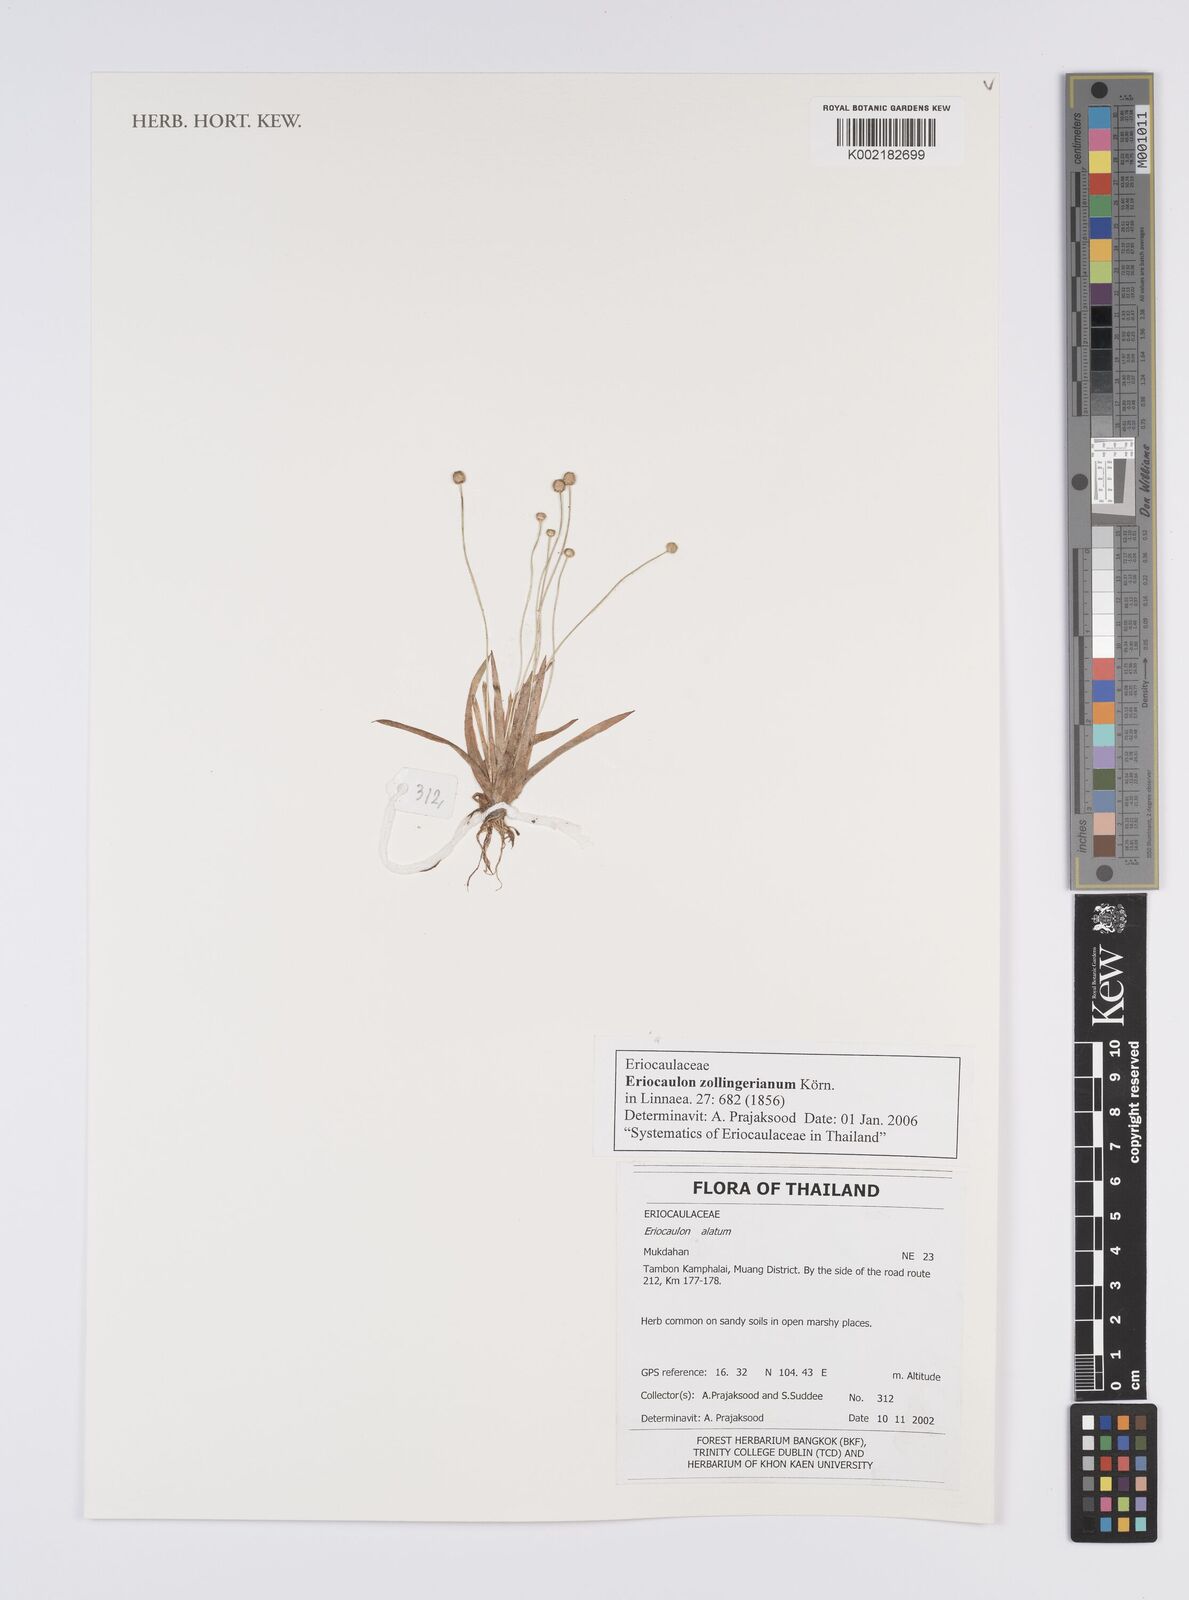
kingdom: Plantae
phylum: Tracheophyta
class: Liliopsida
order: Poales
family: Eriocaulaceae
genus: Eriocaulon
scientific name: Eriocaulon zollingerianum
